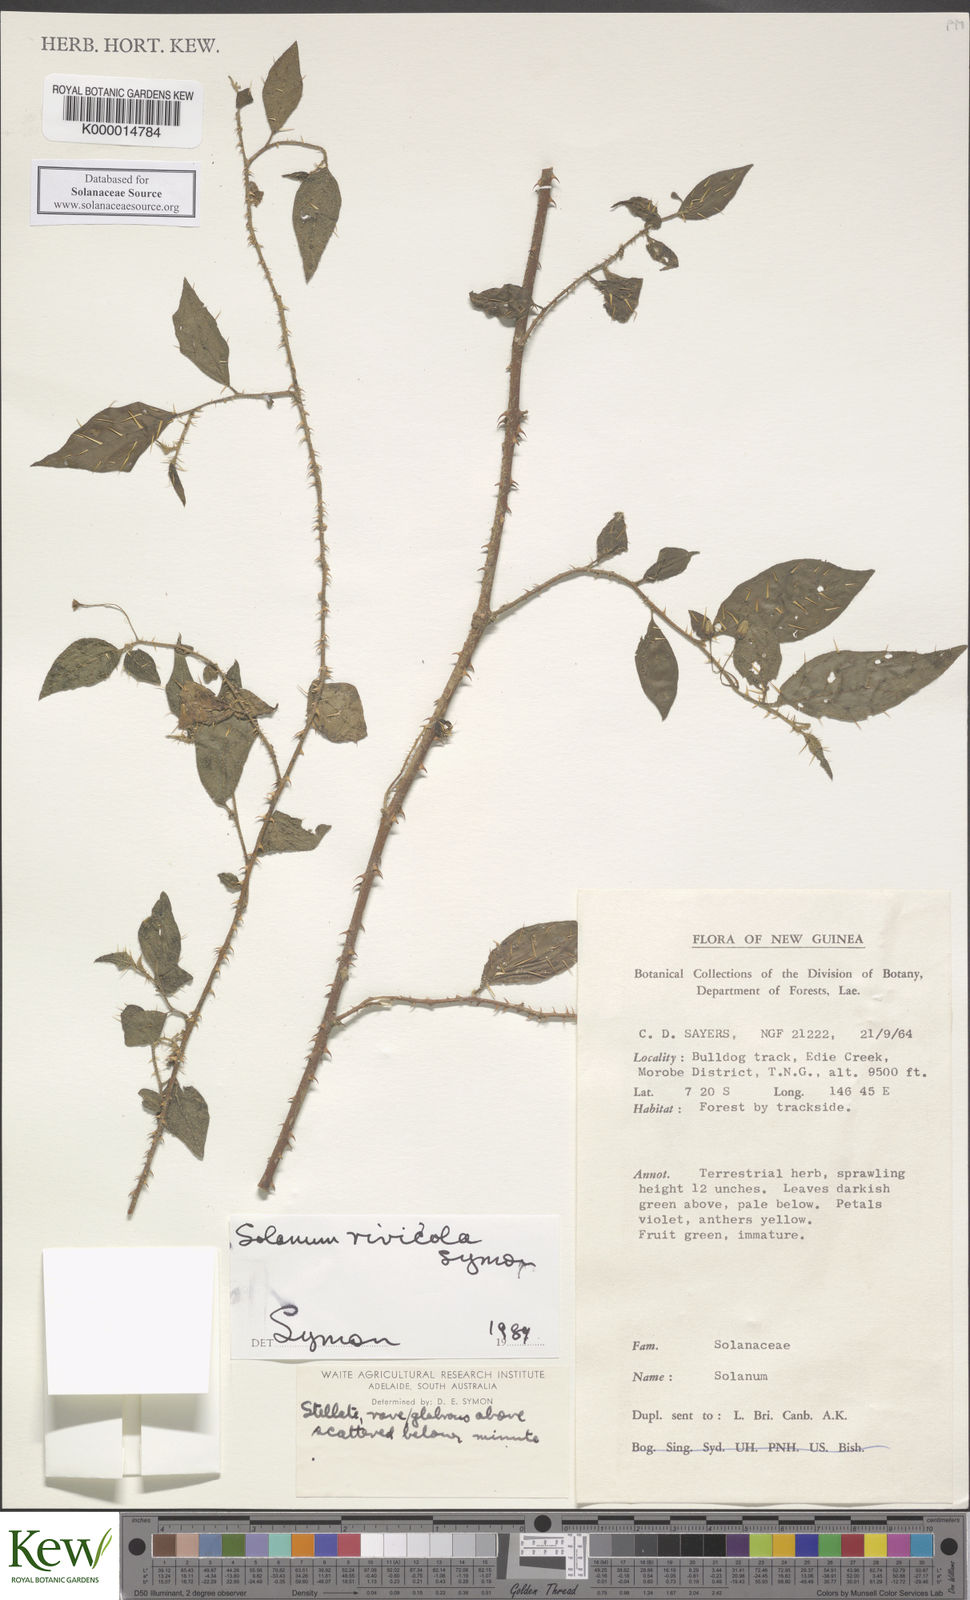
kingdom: Plantae
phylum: Tracheophyta
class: Magnoliopsida
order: Solanales
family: Solanaceae
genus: Solanum
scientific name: Solanum rivicola
